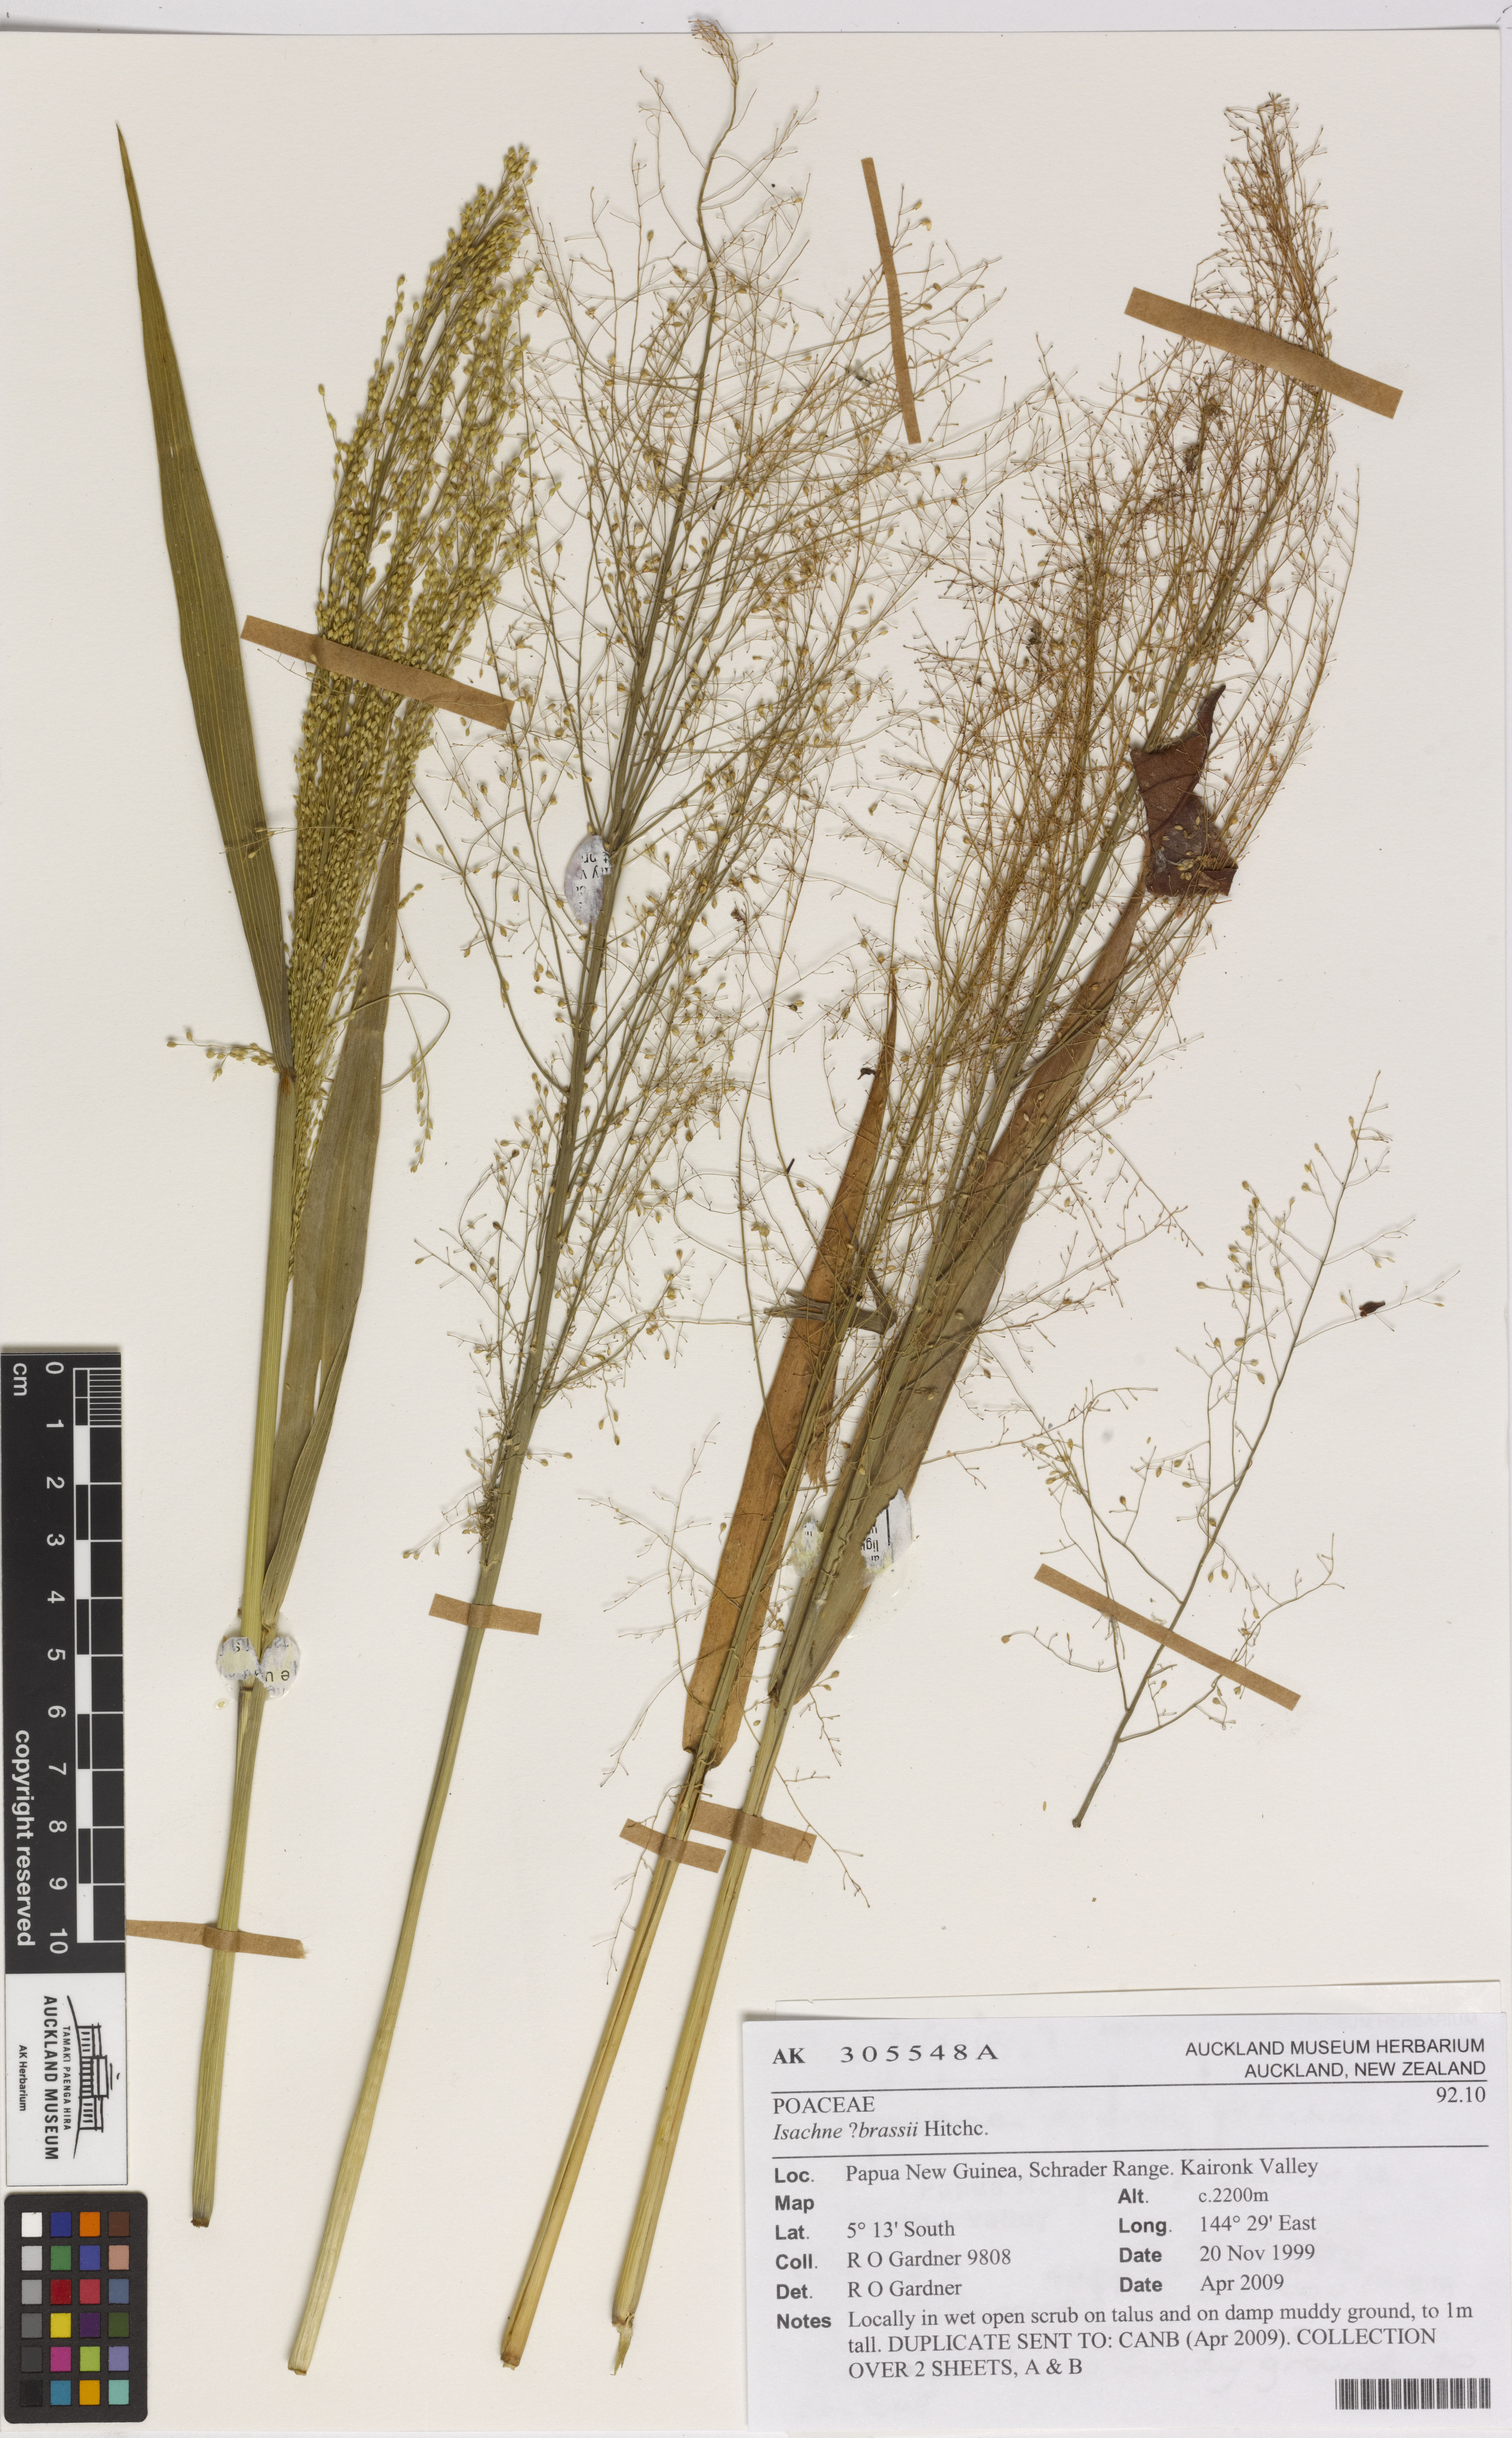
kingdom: Plantae
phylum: Tracheophyta
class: Liliopsida
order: Poales
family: Poaceae
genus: Isachne
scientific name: Isachne brassii
